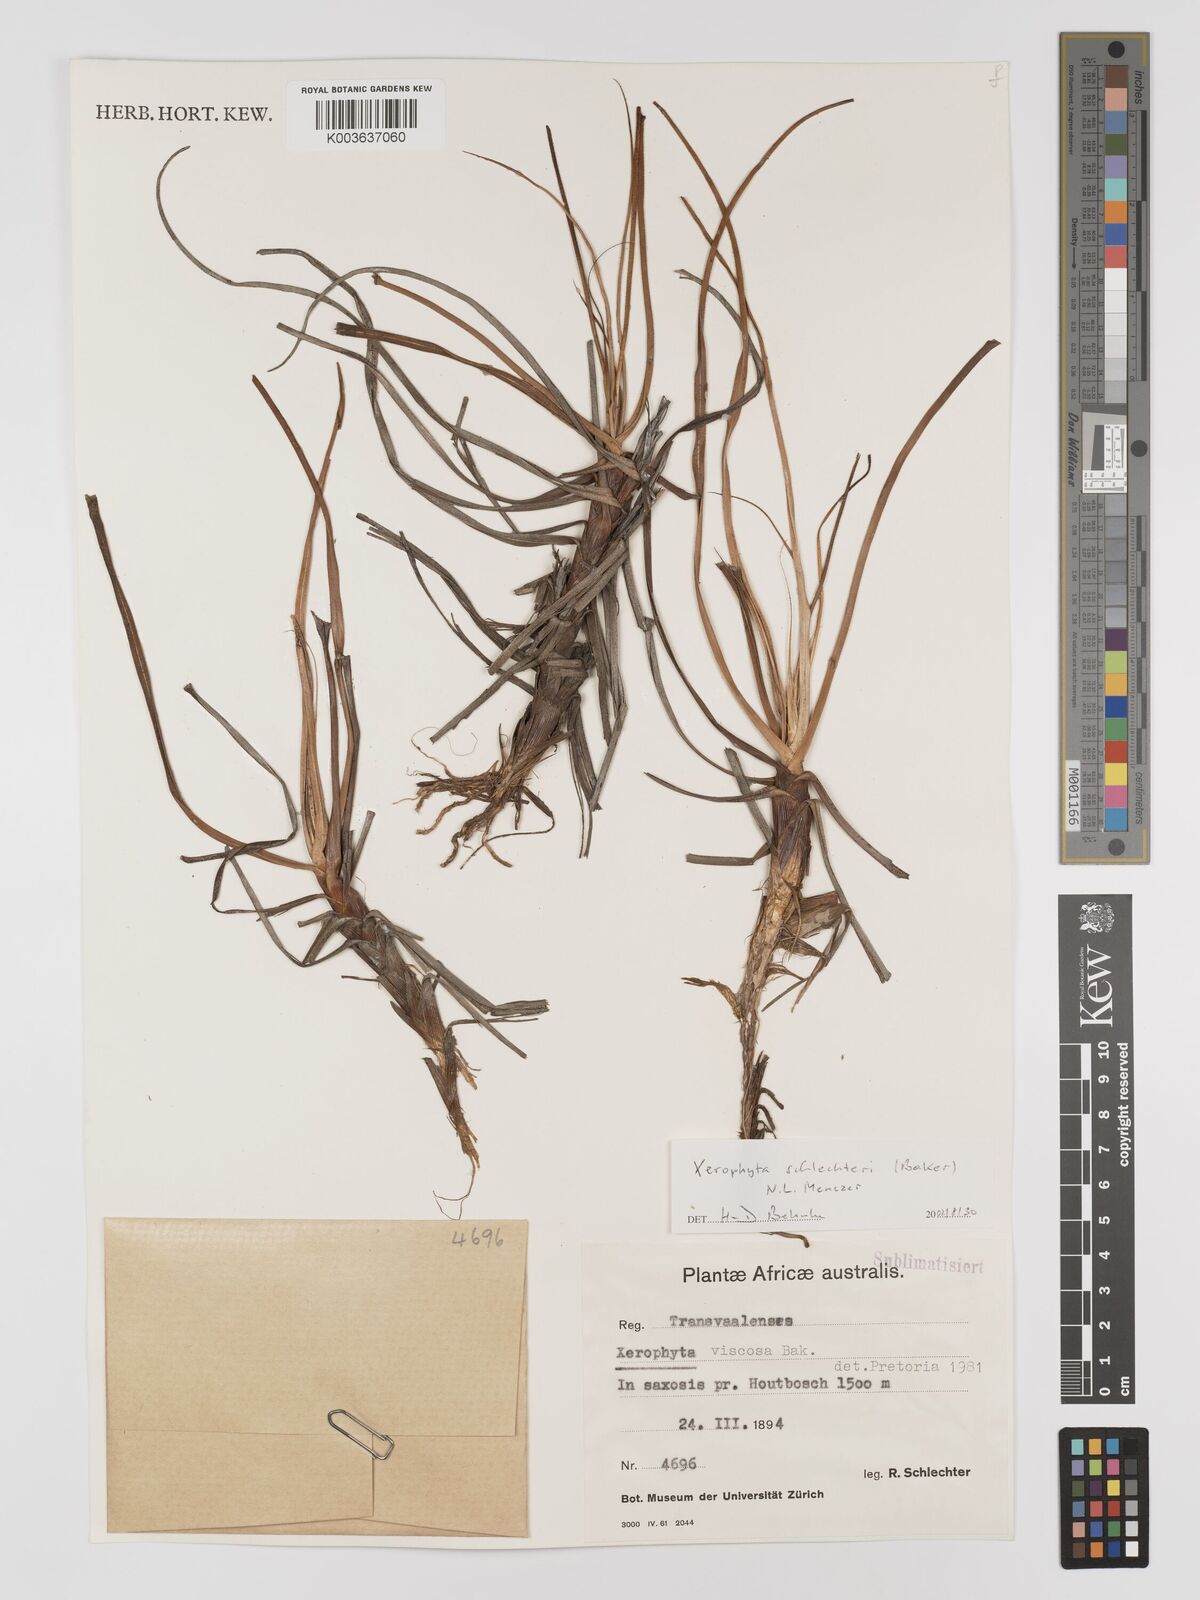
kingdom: Plantae
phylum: Tracheophyta
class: Liliopsida
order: Pandanales
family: Velloziaceae
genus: Xerophyta
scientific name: Xerophyta schlechteri
